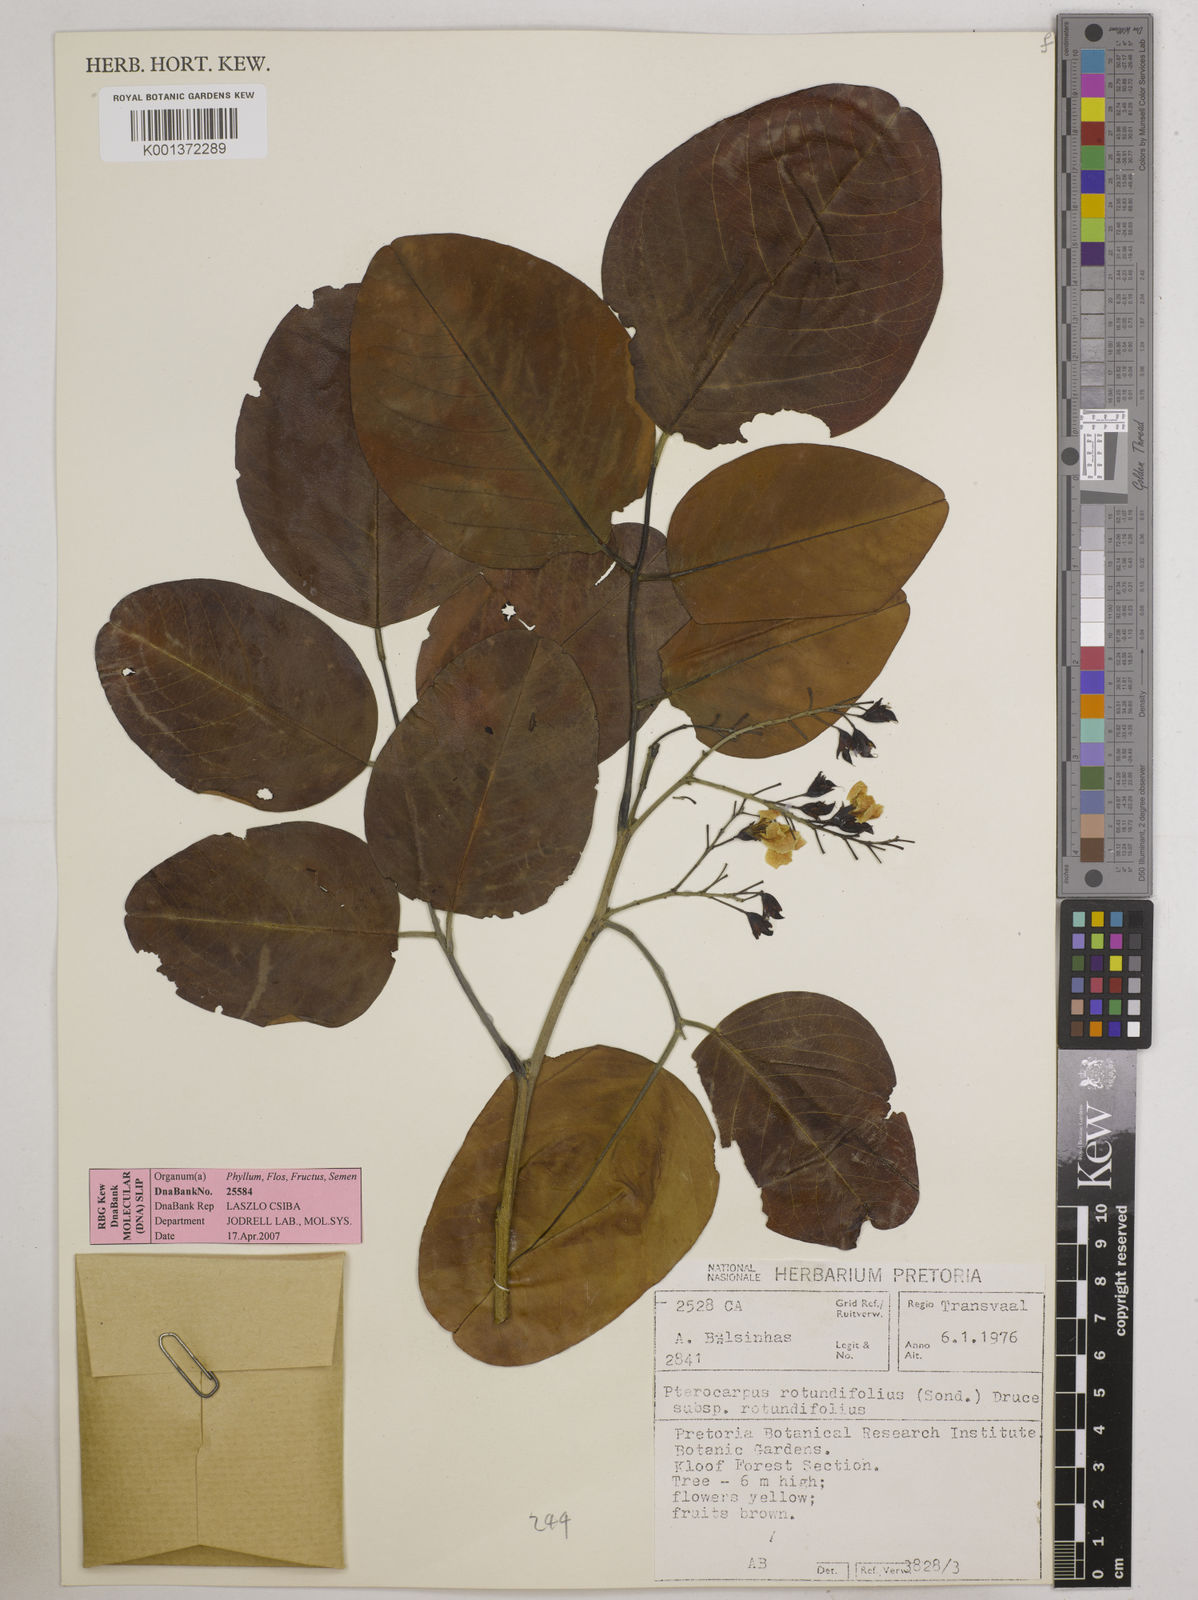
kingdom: Plantae
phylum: Tracheophyta
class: Magnoliopsida
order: Fabales
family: Fabaceae
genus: Pterocarpus
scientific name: Pterocarpus rotundifolius
